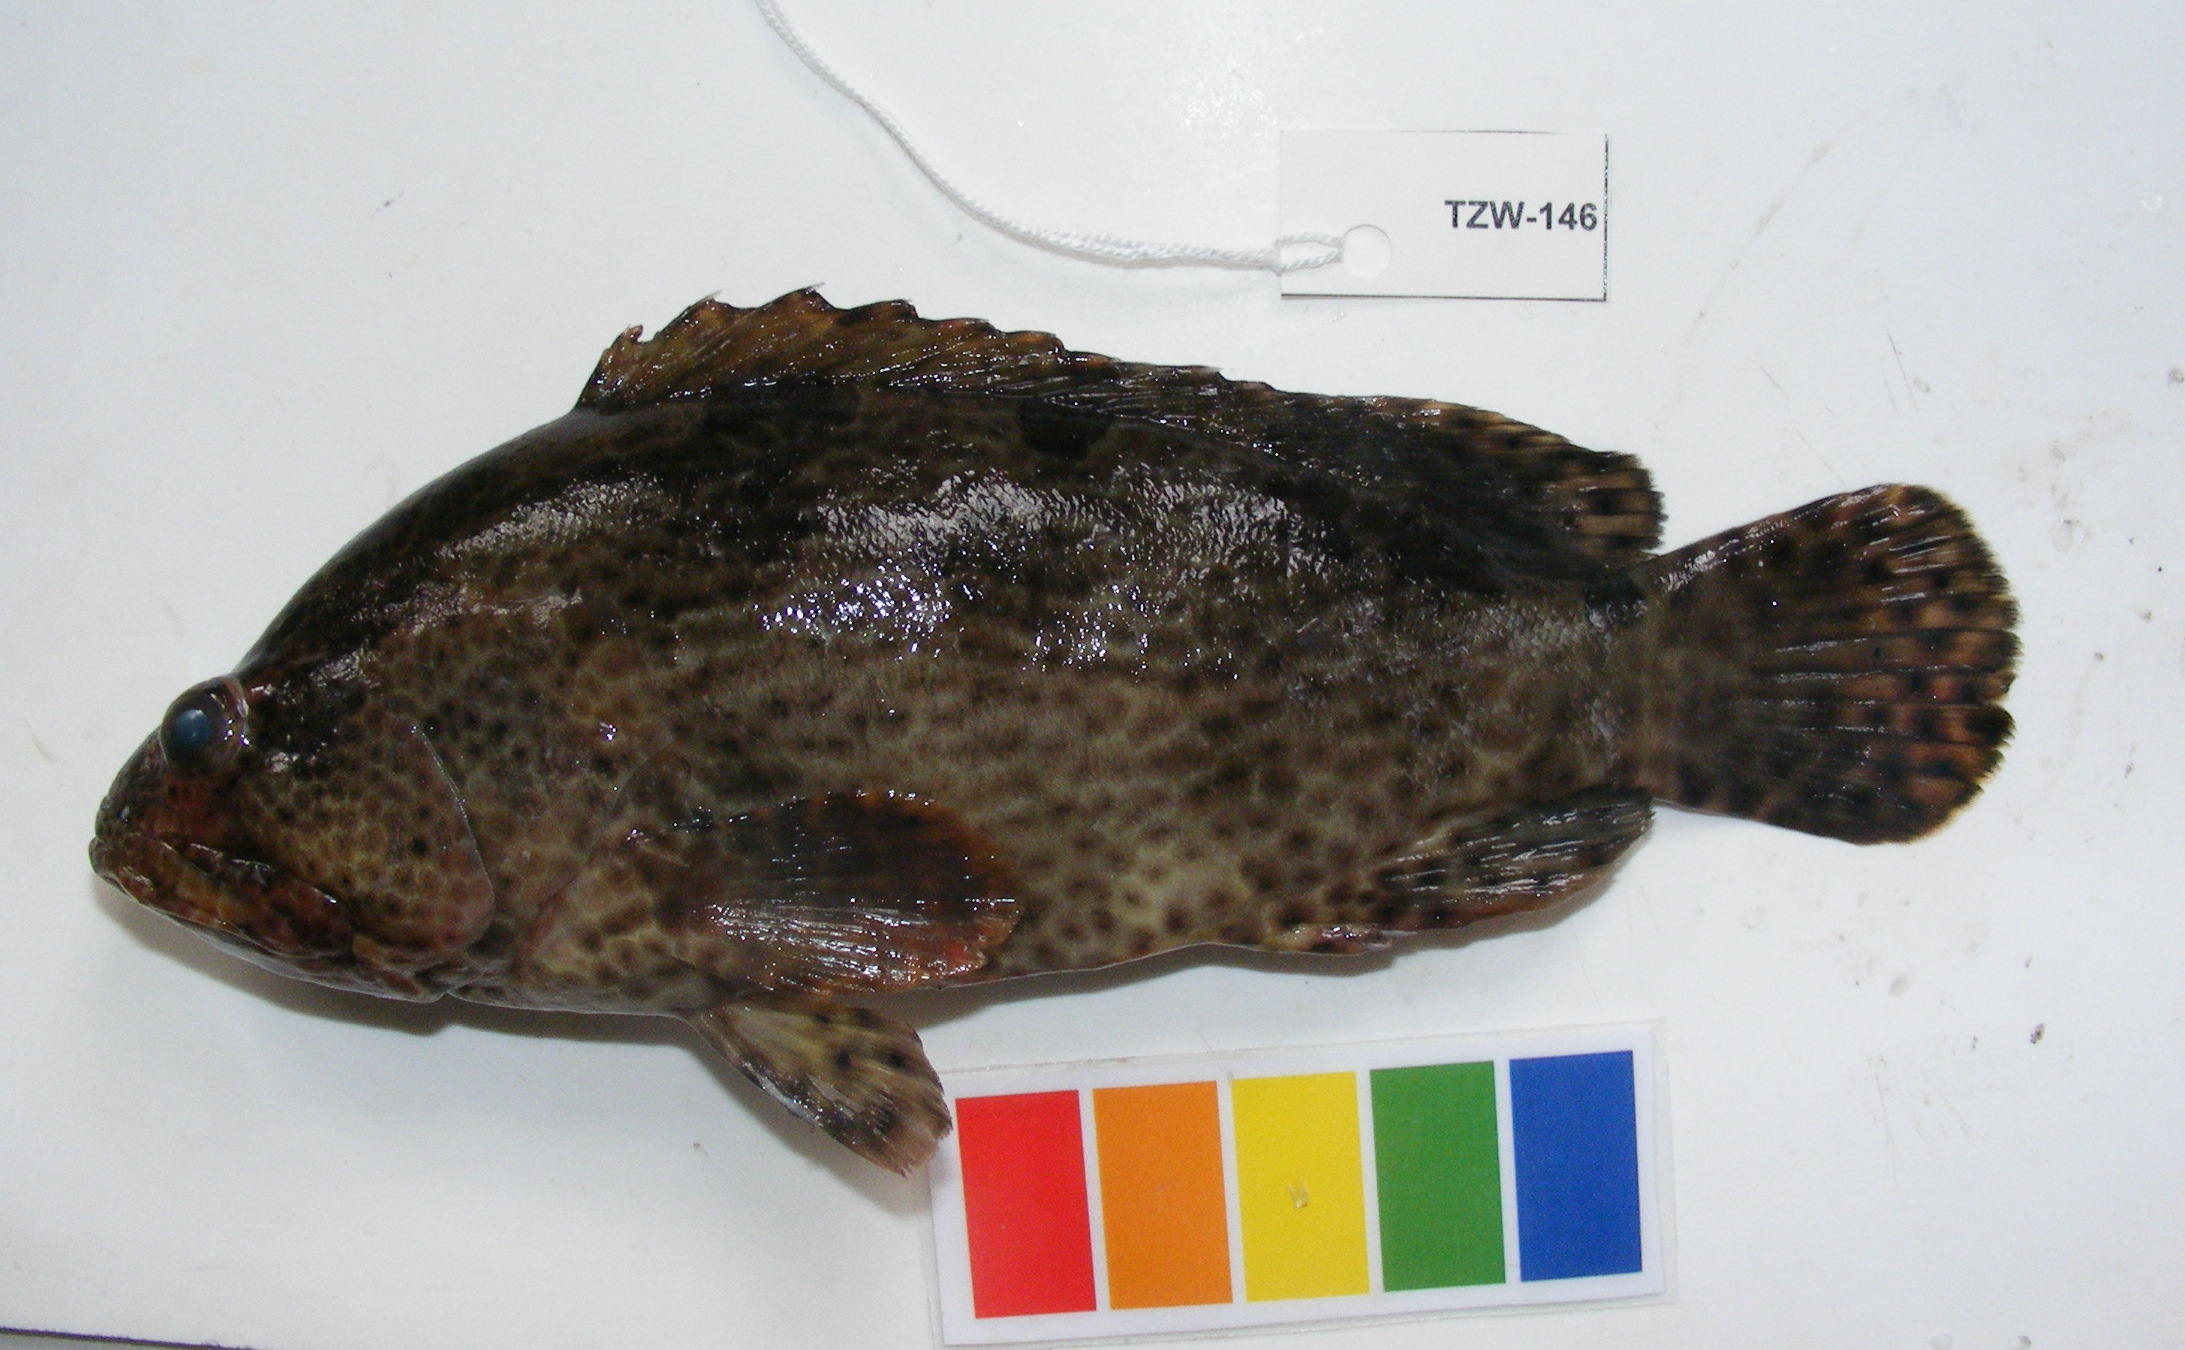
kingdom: Animalia
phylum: Chordata
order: Perciformes
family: Serranidae
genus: Epinephelus
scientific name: Epinephelus fuscoguttatus
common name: Brown-marbled grouper
